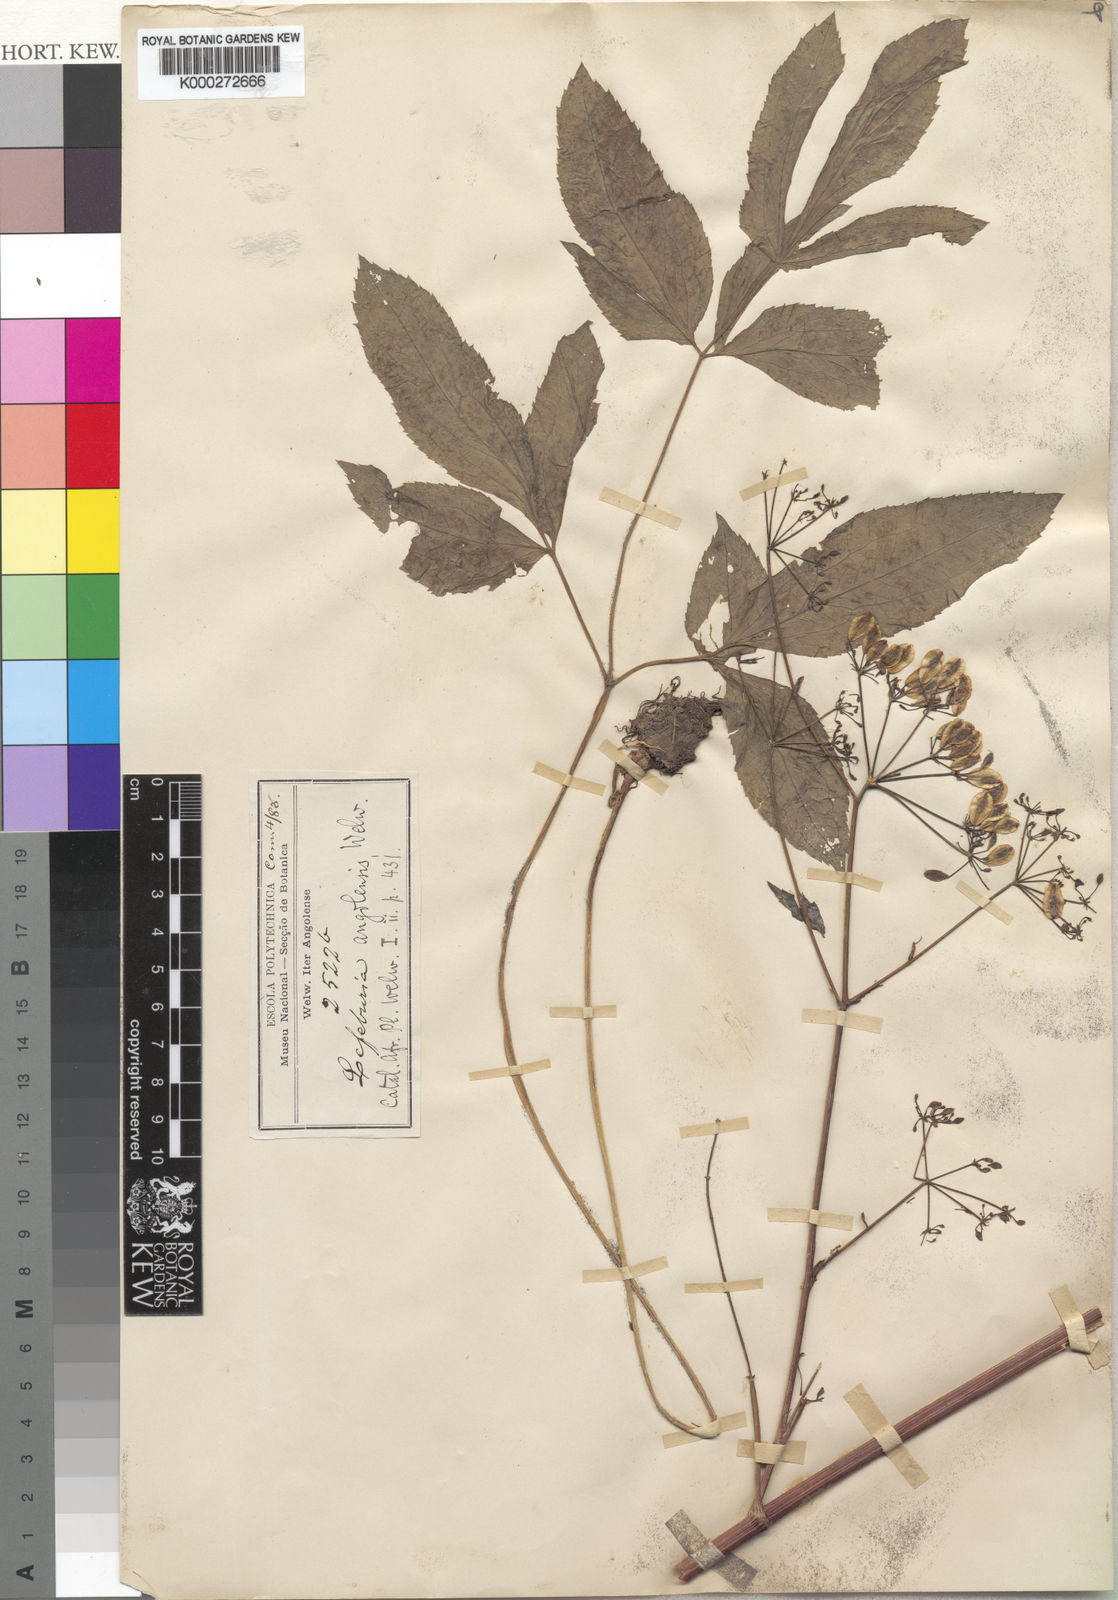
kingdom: Plantae
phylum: Tracheophyta
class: Magnoliopsida
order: Apiales
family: Apiaceae
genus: Lefebvrea
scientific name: Lefebvrea grantii
